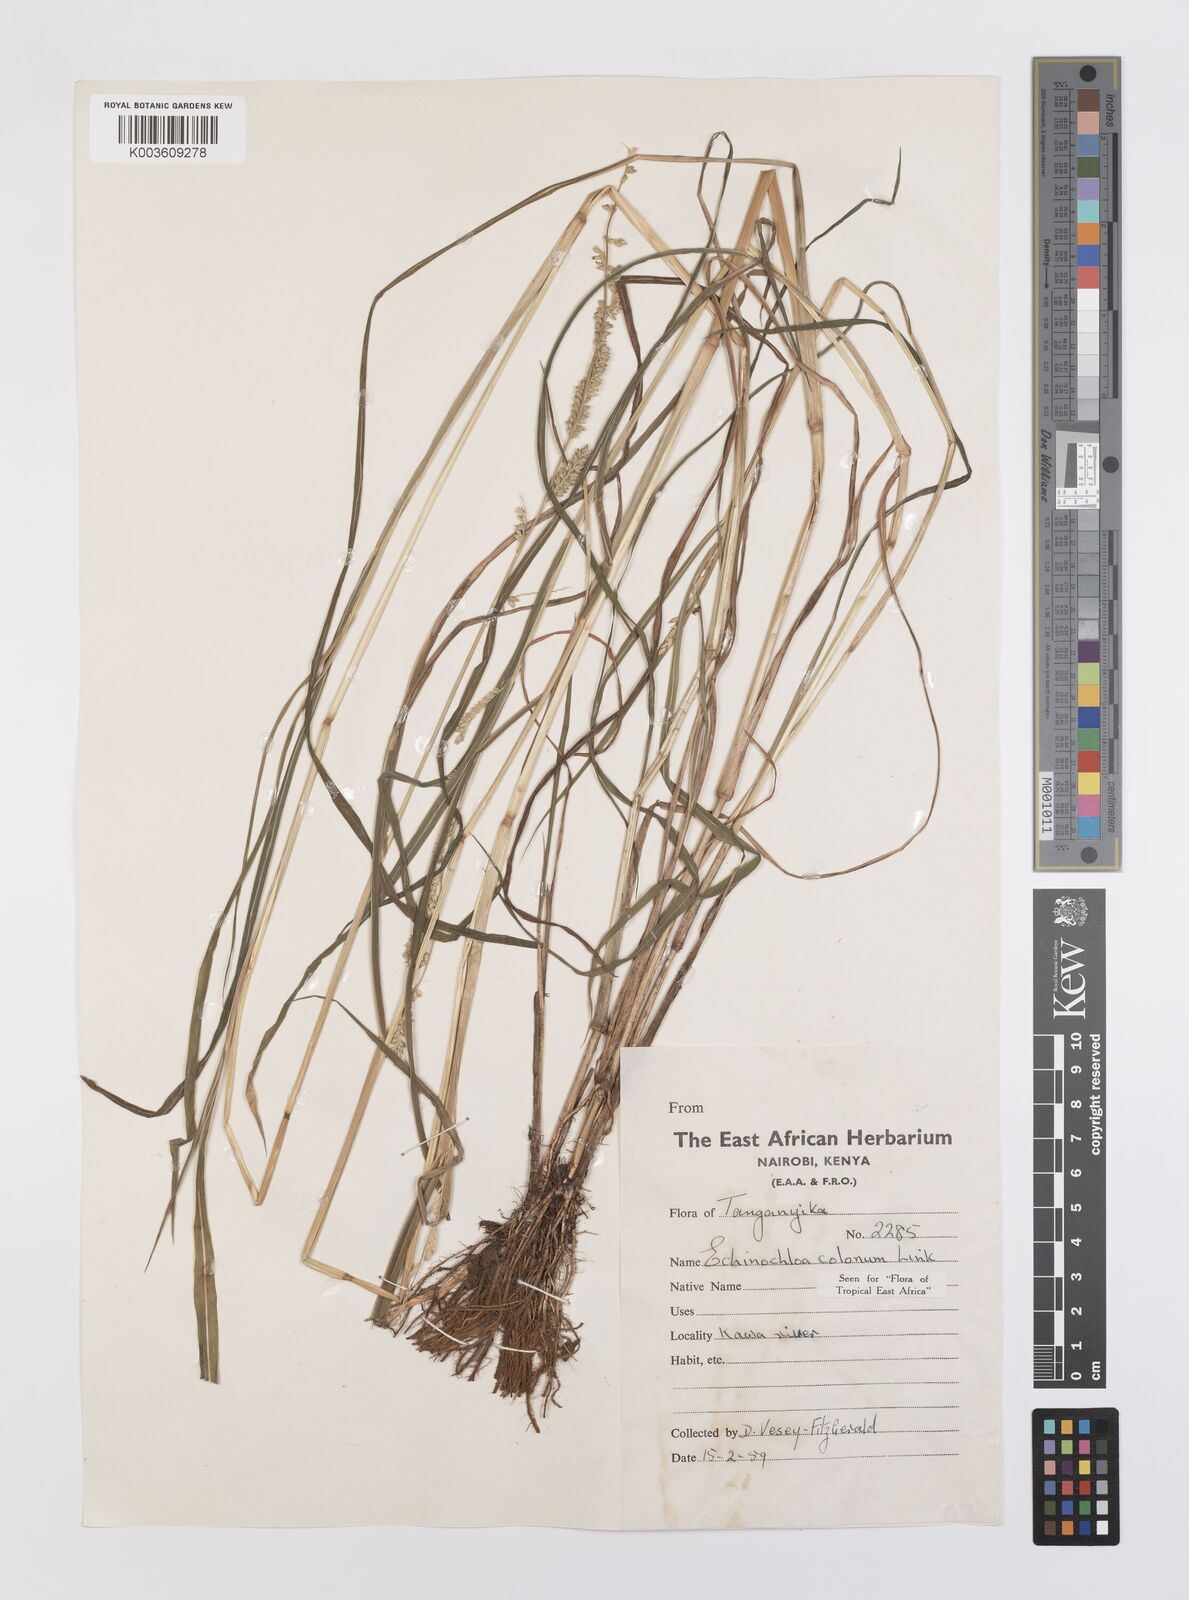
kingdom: Plantae
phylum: Tracheophyta
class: Liliopsida
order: Poales
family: Poaceae
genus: Echinochloa
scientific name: Echinochloa colonum
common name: Jungle rice
